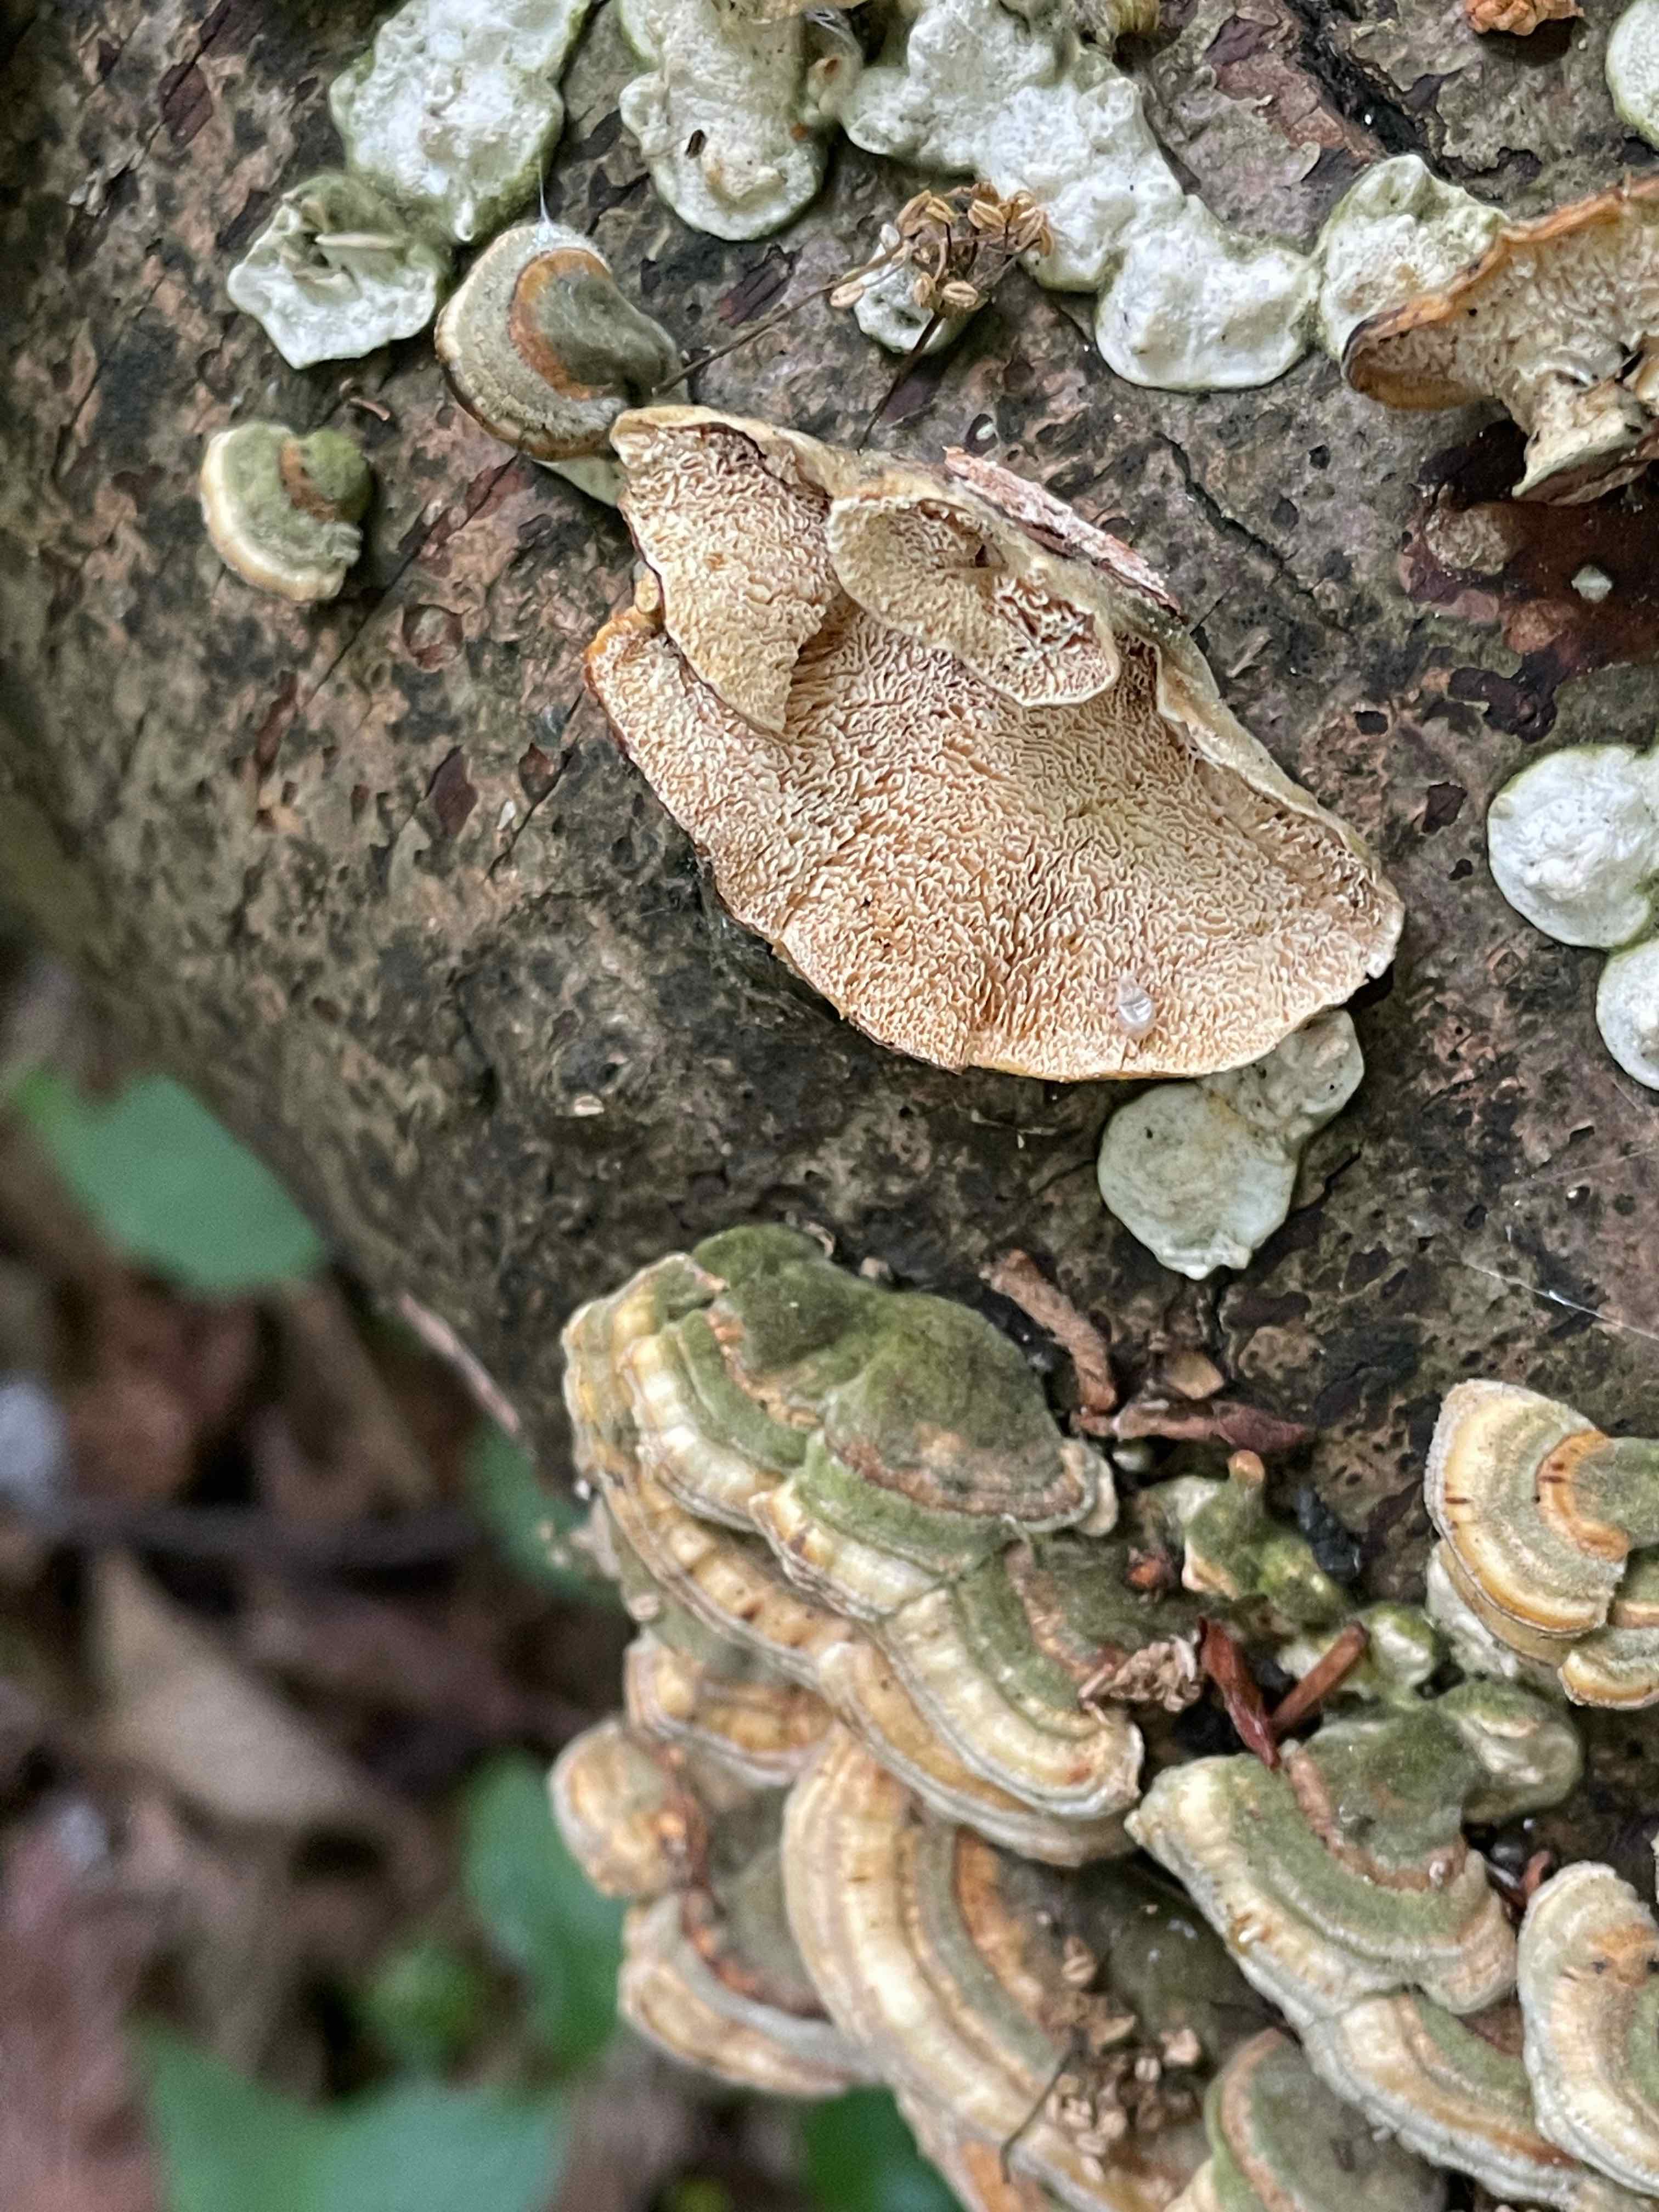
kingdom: Fungi
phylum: Basidiomycota
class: Agaricomycetes
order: Polyporales
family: Polyporaceae
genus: Trametes
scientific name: Trametes
